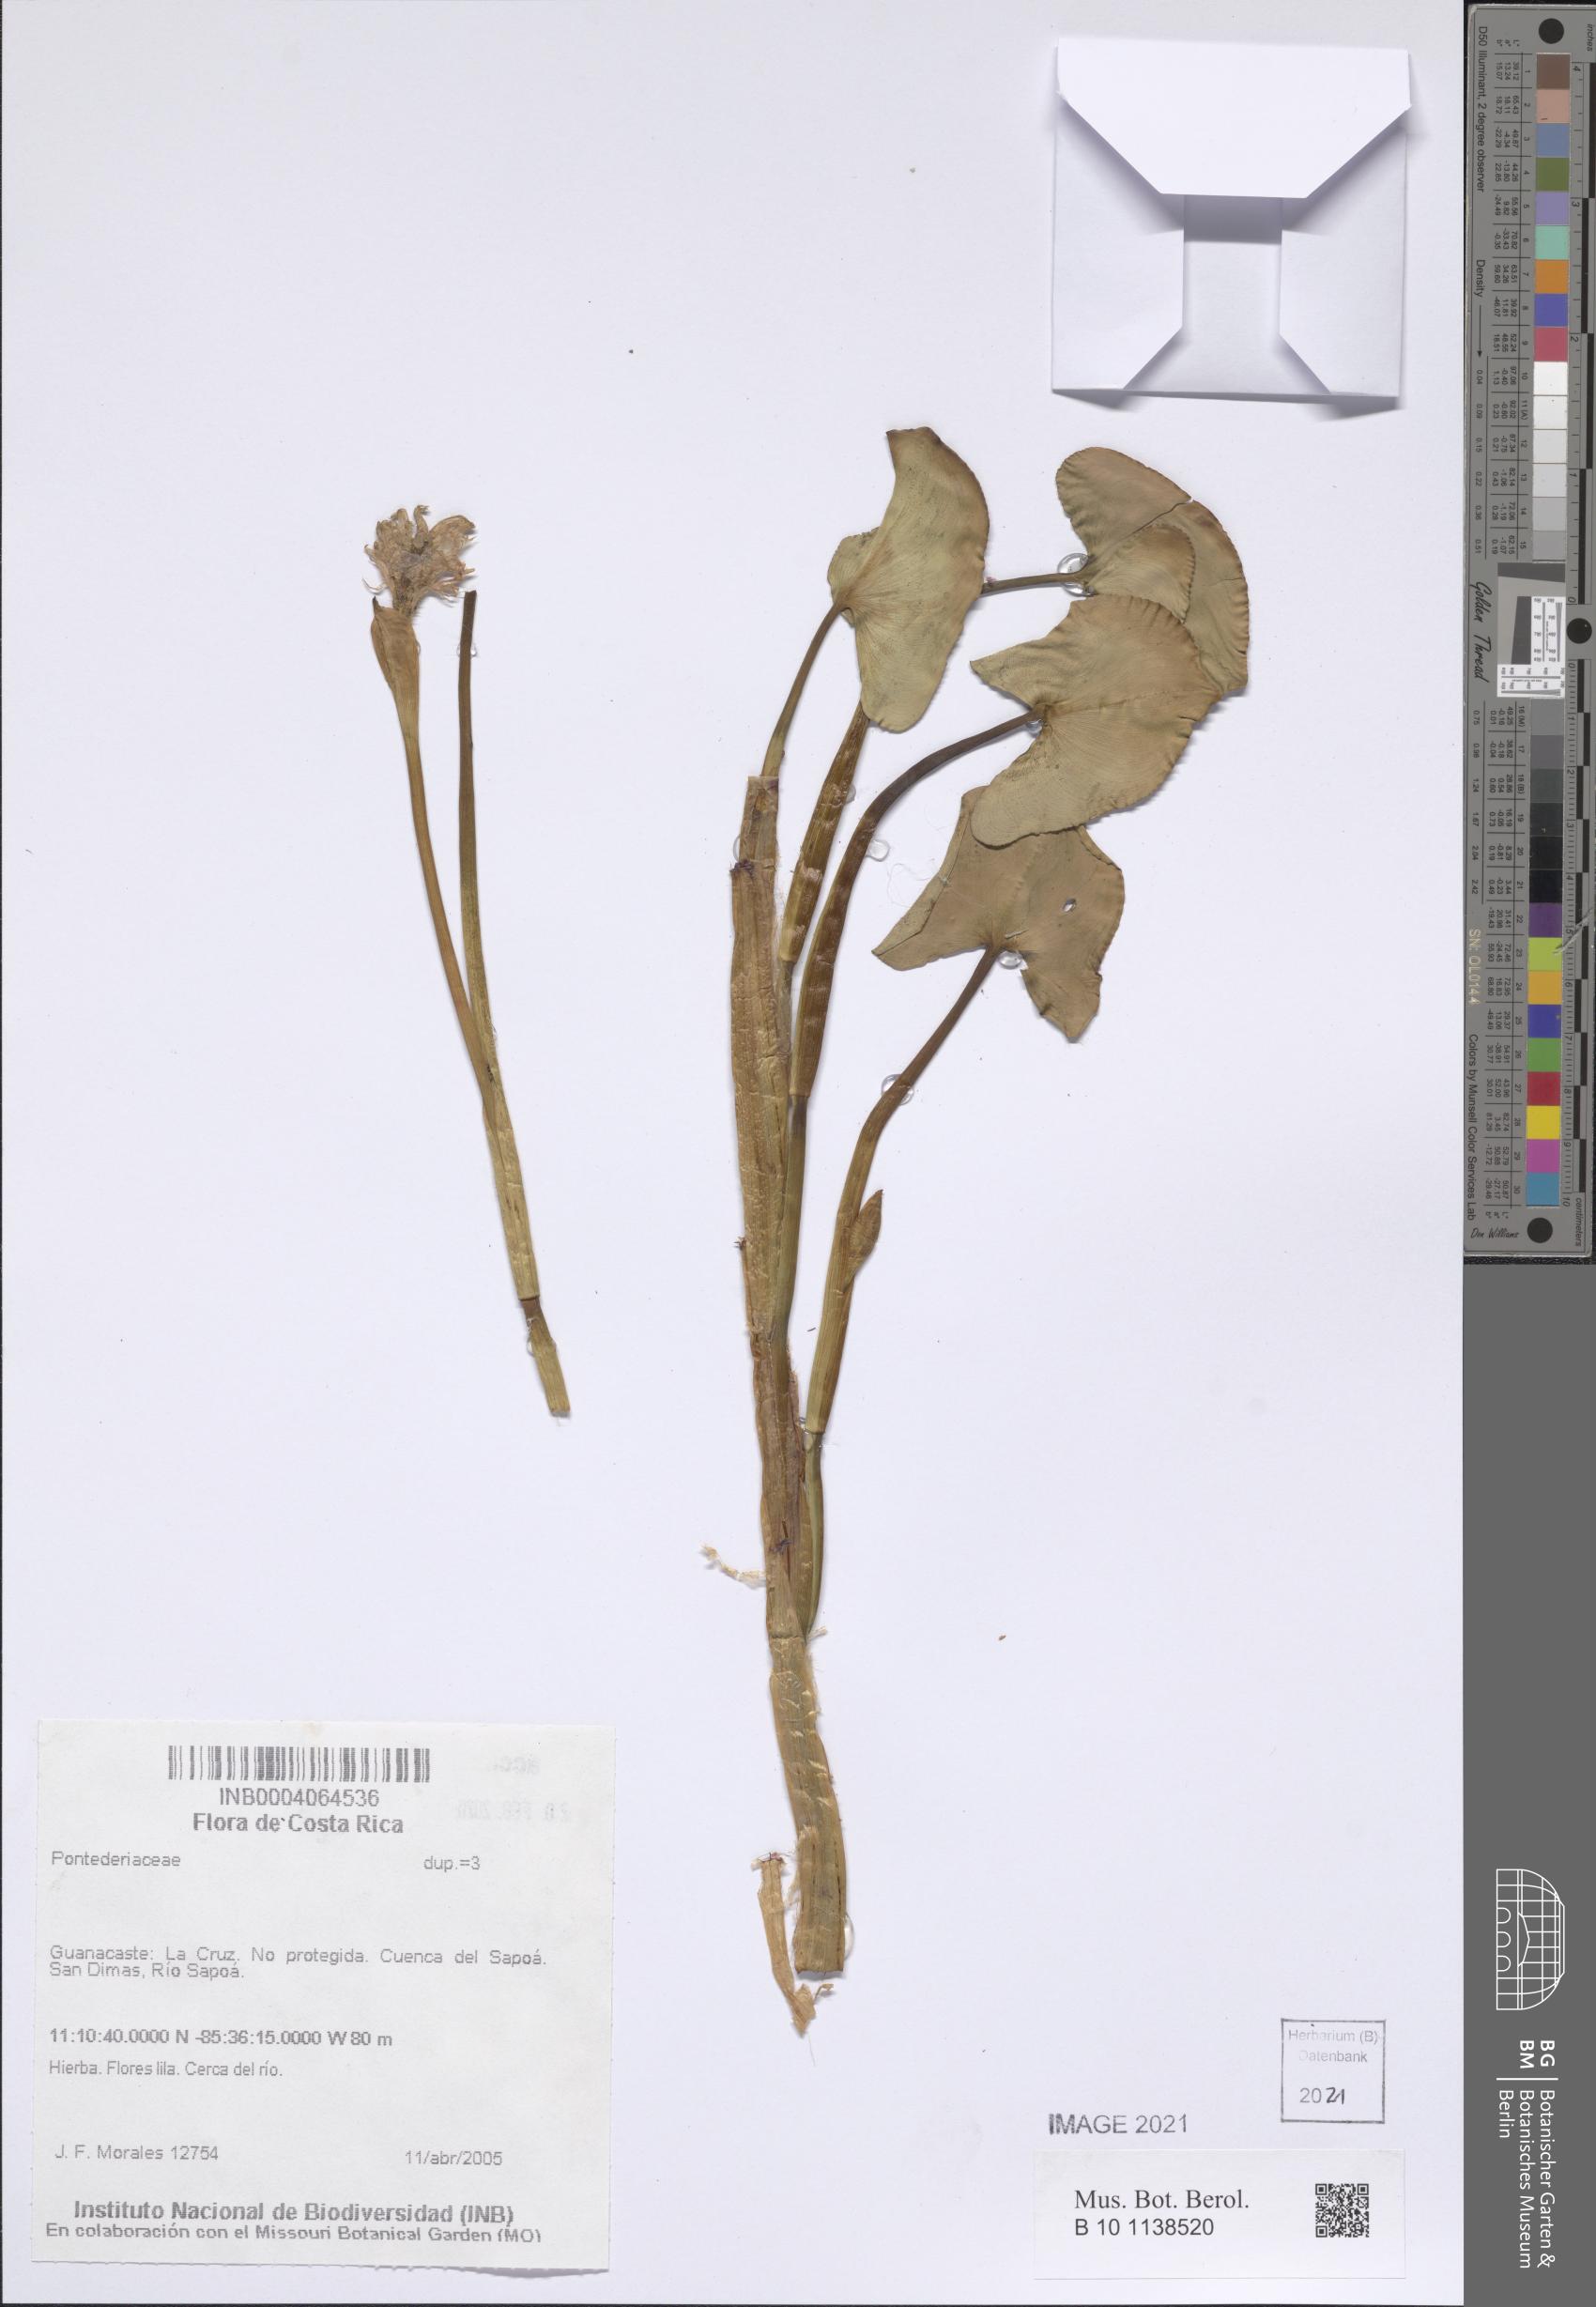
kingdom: Plantae
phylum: Tracheophyta
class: Liliopsida
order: Commelinales
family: Pontederiaceae
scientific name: Pontederiaceae
